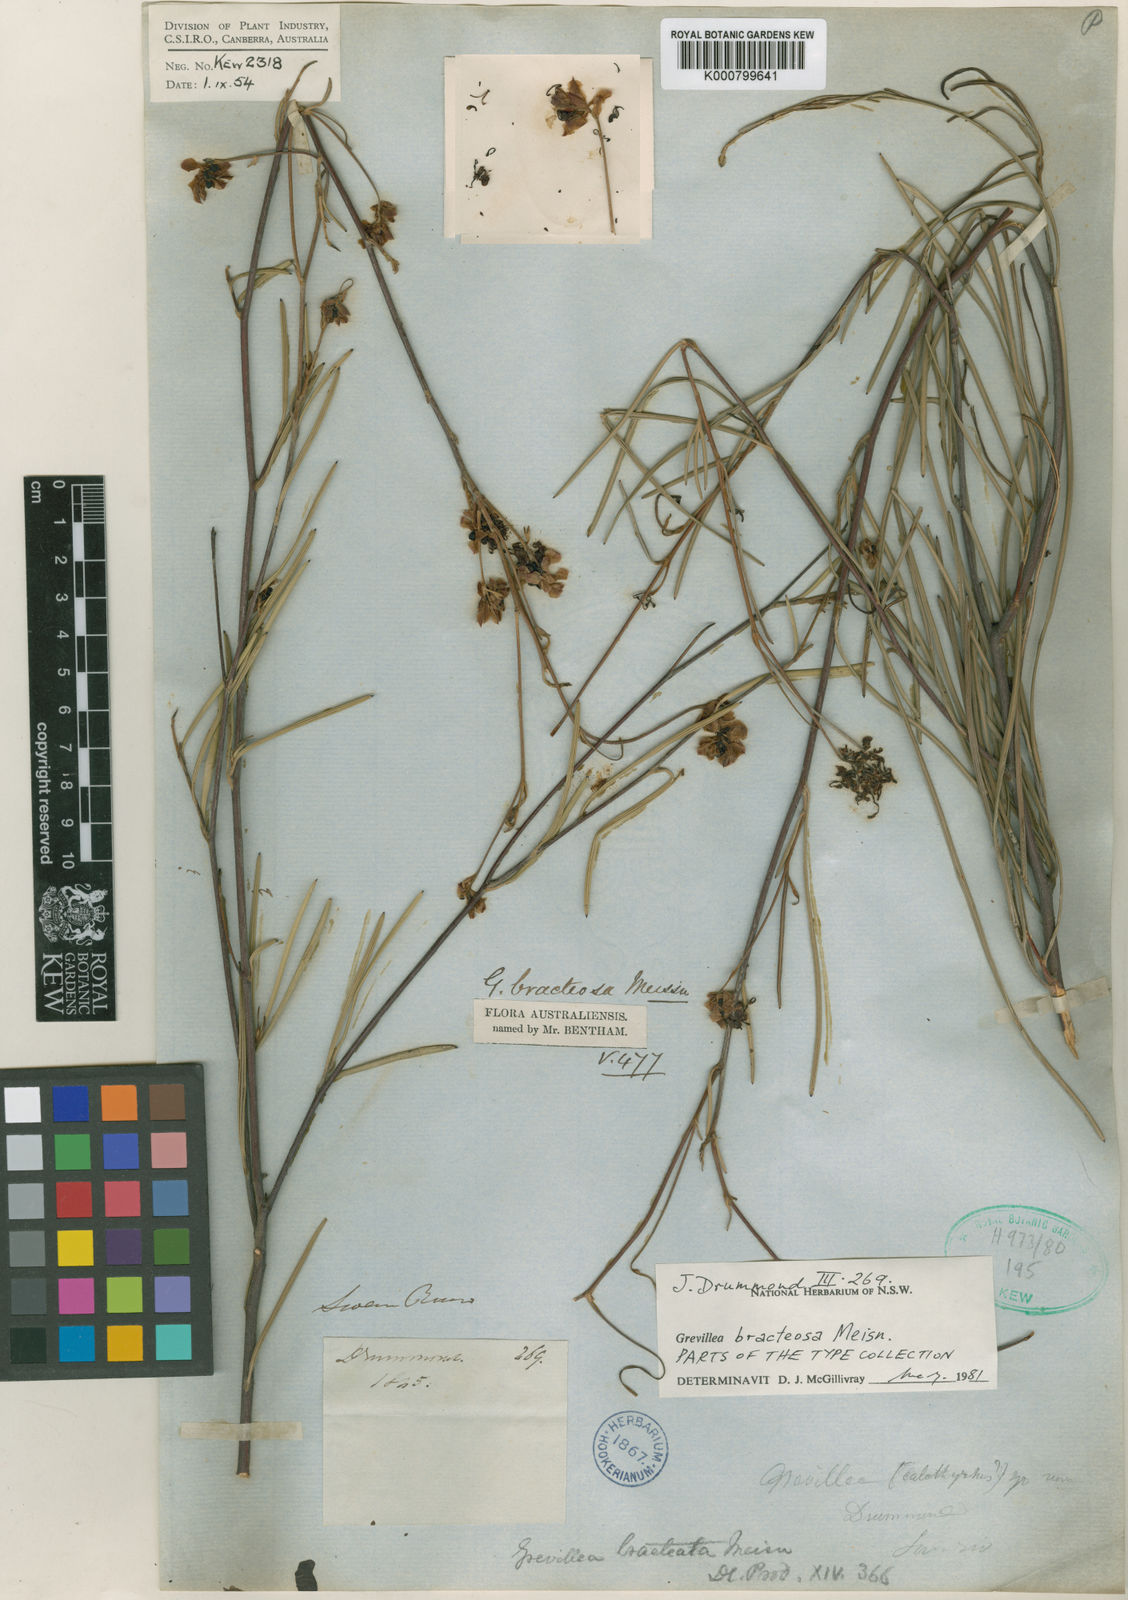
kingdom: Plantae
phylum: Tracheophyta
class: Magnoliopsida
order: Proteales
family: Proteaceae
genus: Grevillea
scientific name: Grevillea bracteosa
